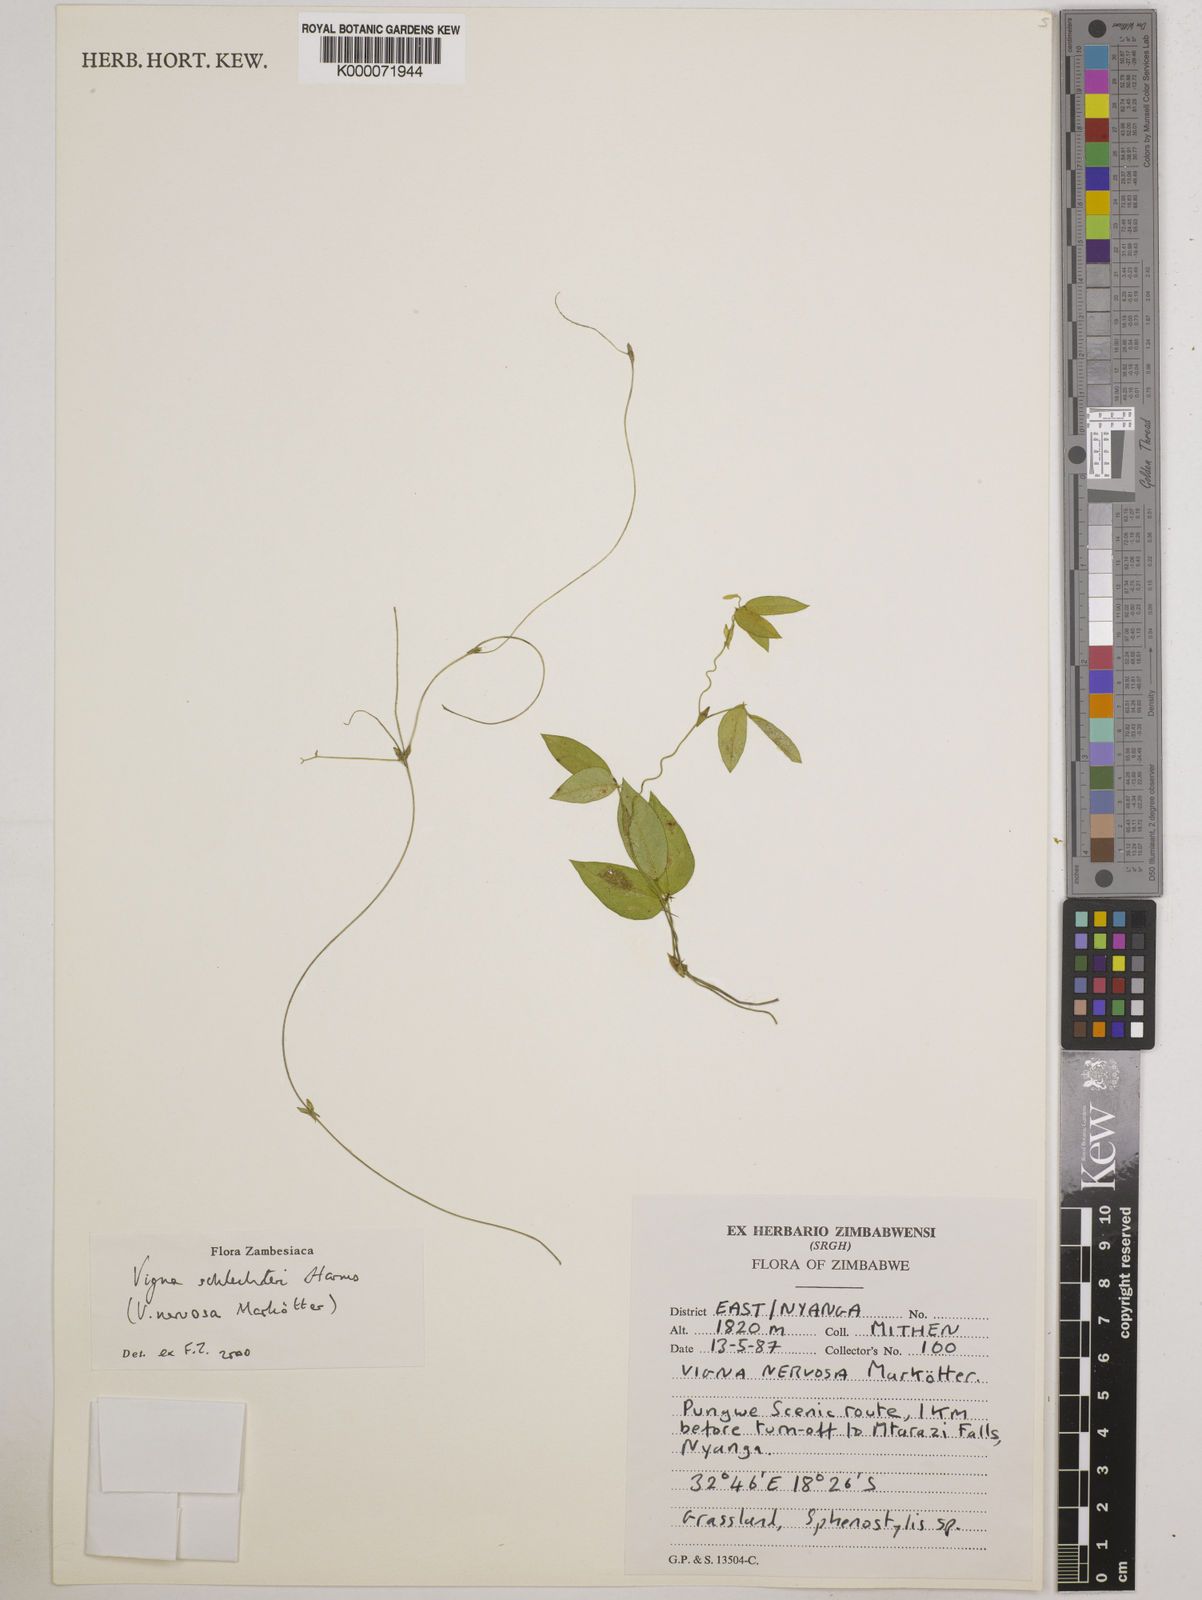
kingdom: Plantae
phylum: Tracheophyta
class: Magnoliopsida
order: Fabales
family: Fabaceae
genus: Vigna
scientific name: Vigna schlechteri
